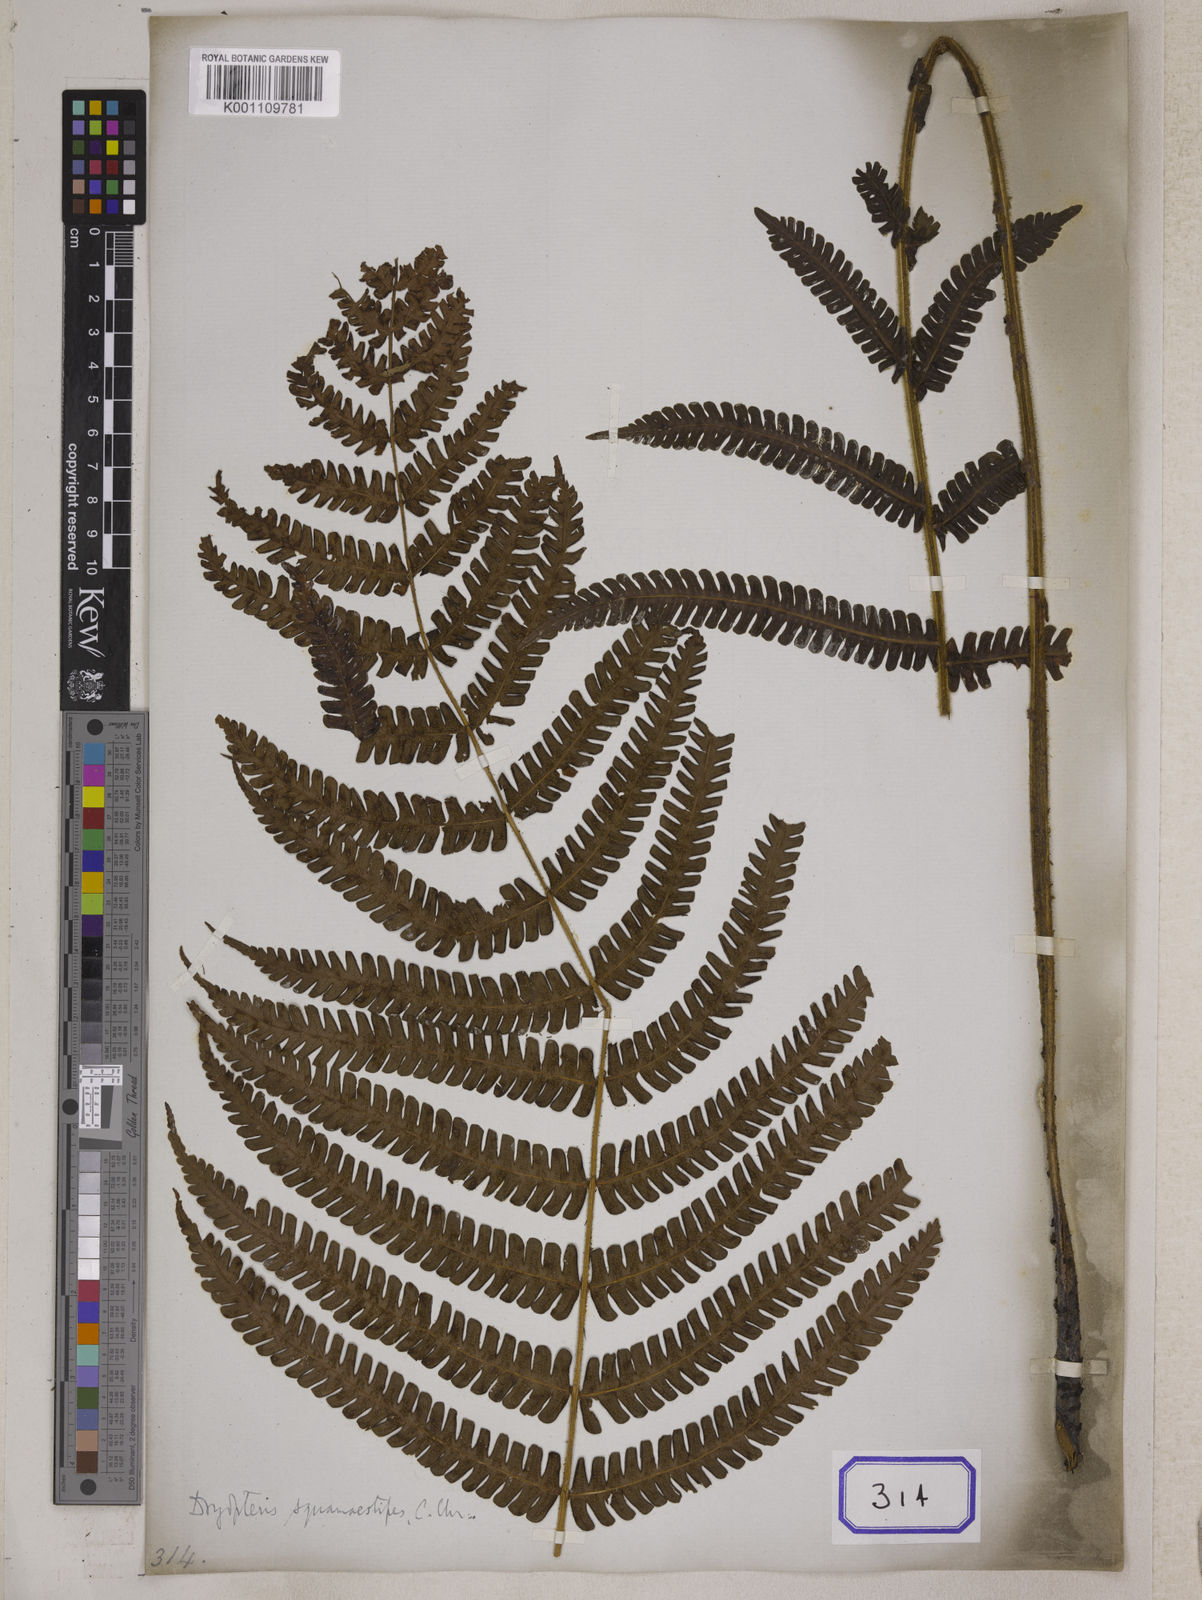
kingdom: Plantae
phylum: Tracheophyta
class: Polypodiopsida
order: Polypodiales
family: Polypodiaceae
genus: Polypodium
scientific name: Polypodium
